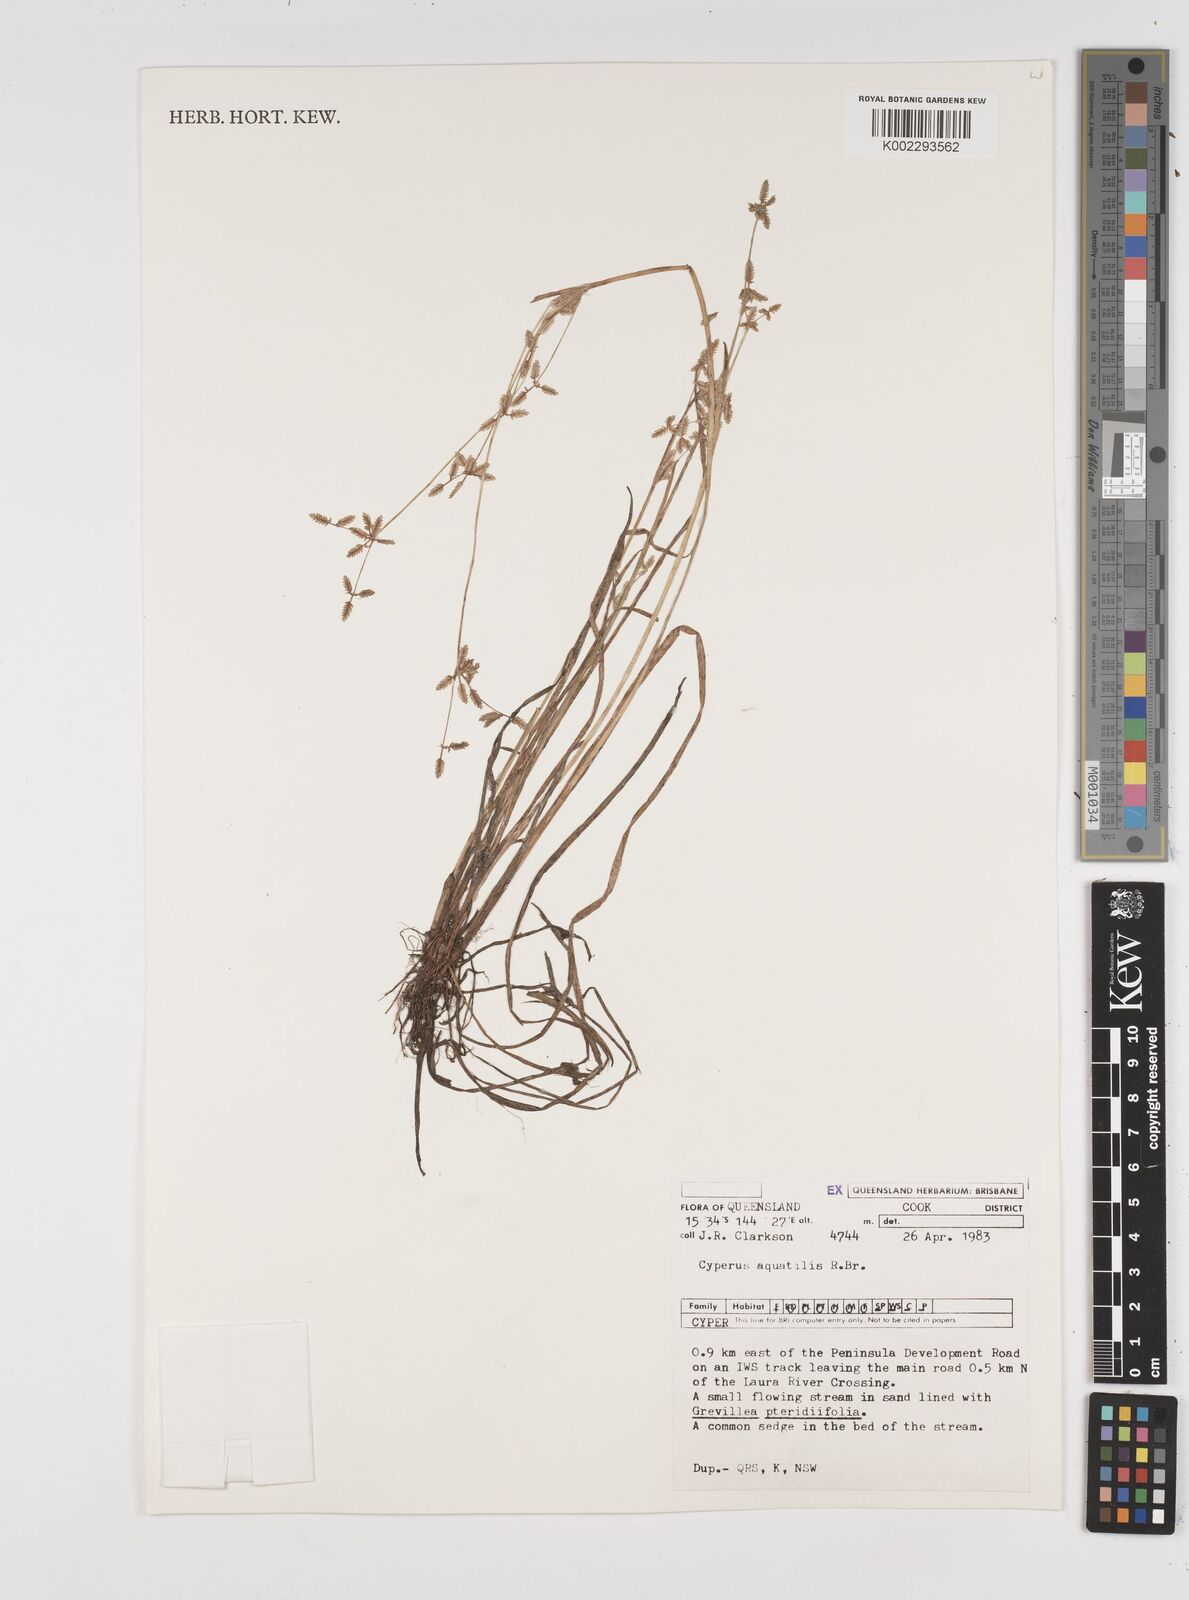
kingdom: Plantae
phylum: Tracheophyta
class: Liliopsida
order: Poales
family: Cyperaceae
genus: Cyperus
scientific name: Cyperus aquatilis
